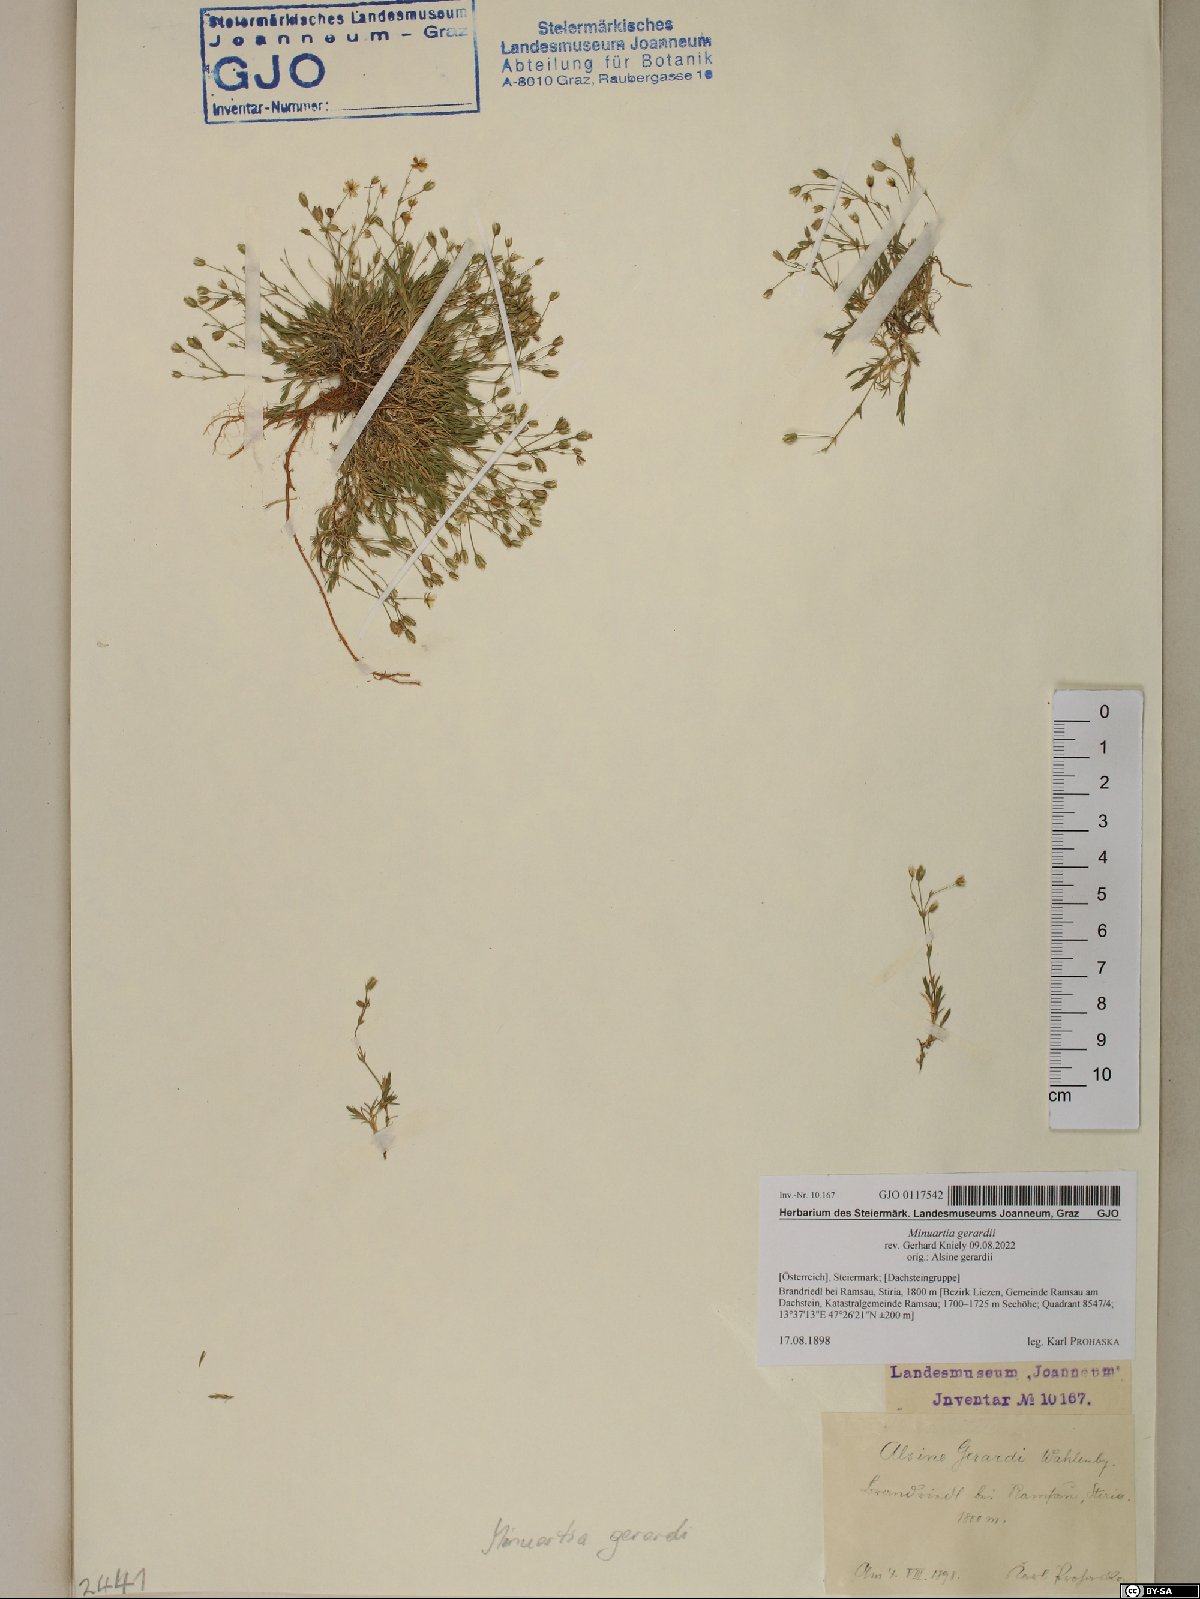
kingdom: Plantae
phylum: Tracheophyta
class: Magnoliopsida
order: Caryophyllales
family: Caryophyllaceae
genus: Sabulina
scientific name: Sabulina verna
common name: Spring sandwort
